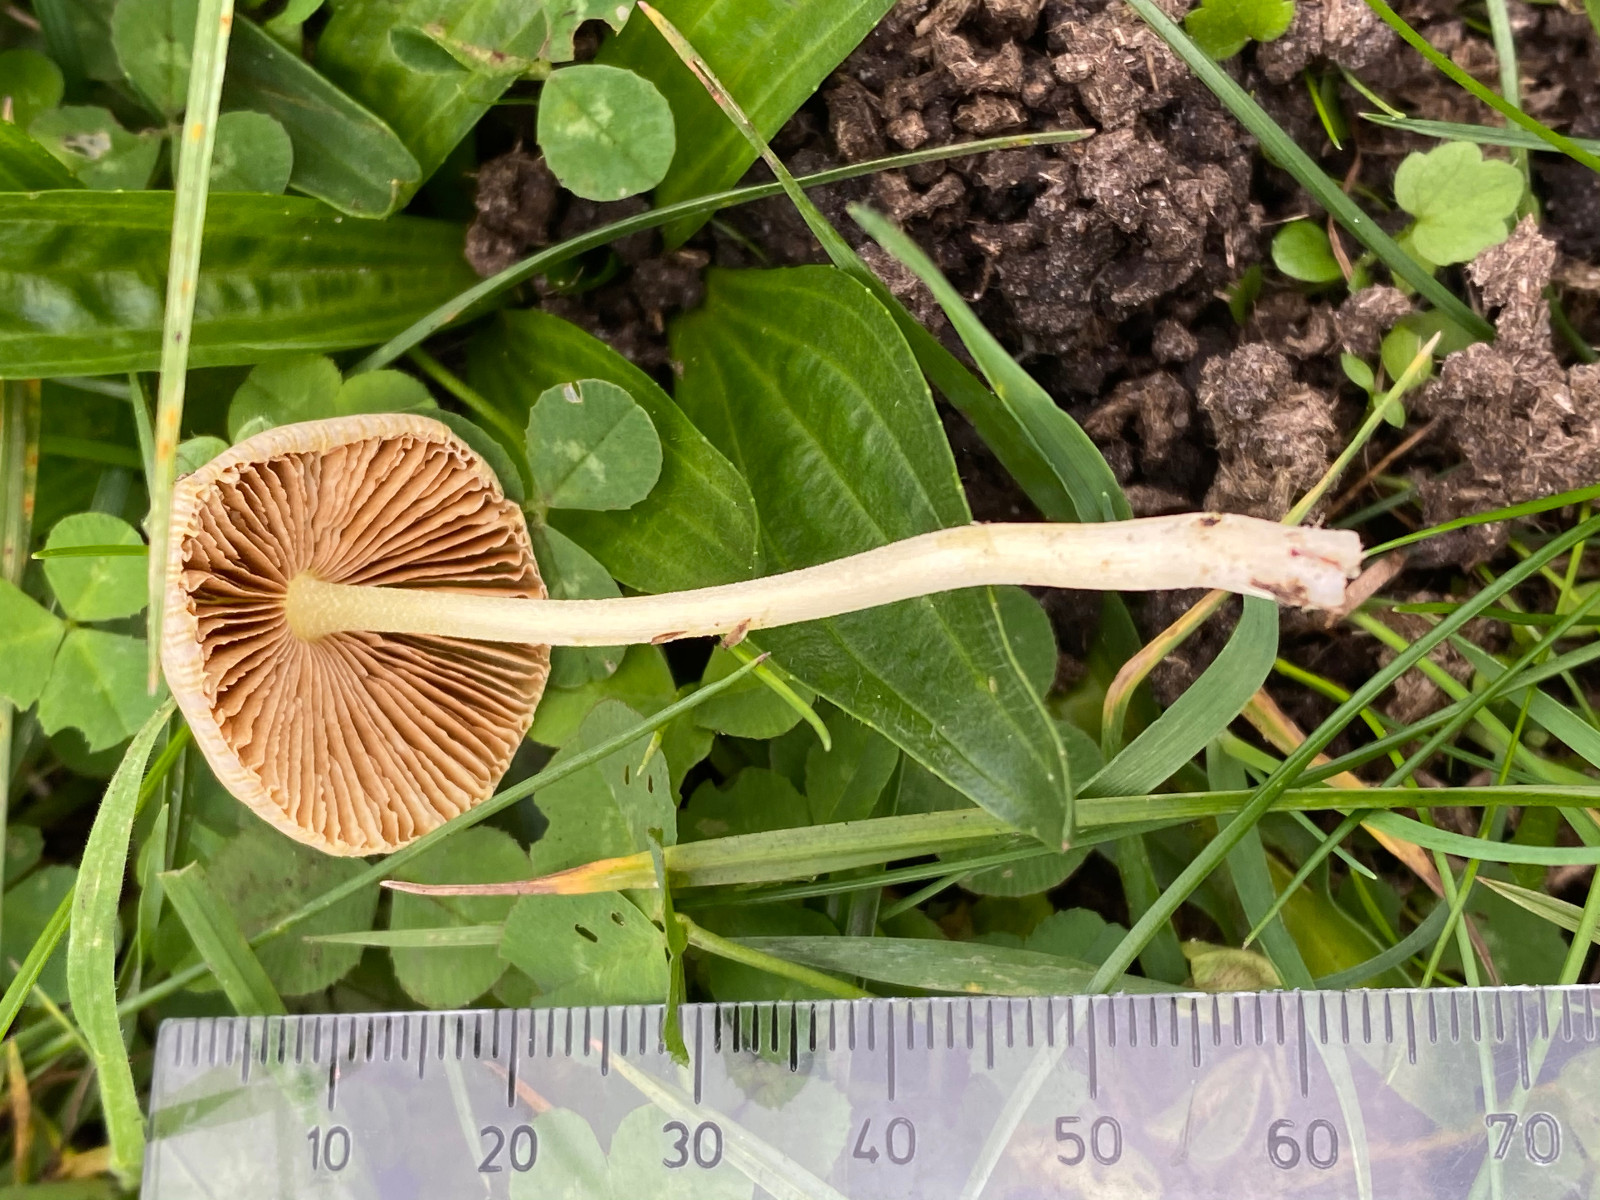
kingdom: Fungi
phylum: Basidiomycota
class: Agaricomycetes
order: Agaricales
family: Bolbitiaceae
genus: Bolbitius
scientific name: Bolbitius titubans
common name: almindelig gulhat
